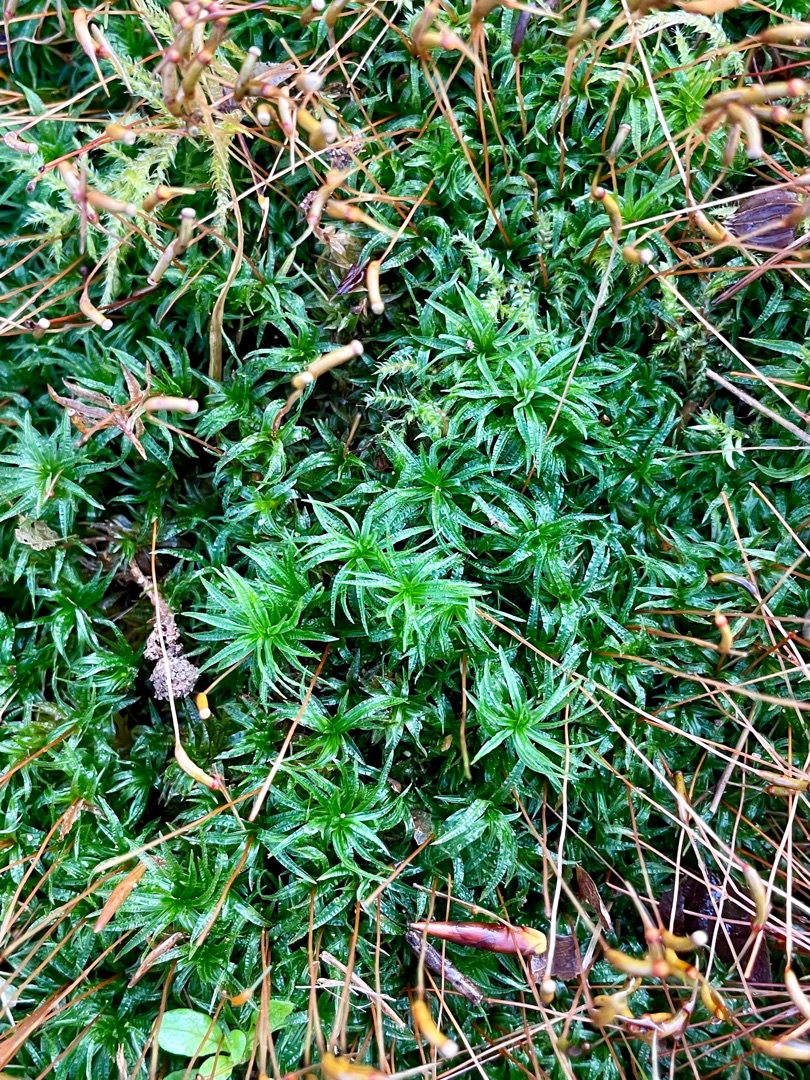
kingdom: Plantae
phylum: Bryophyta
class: Polytrichopsida
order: Polytrichales
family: Polytrichaceae
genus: Atrichum
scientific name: Atrichum undulatum
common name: Bølget katrinemos
